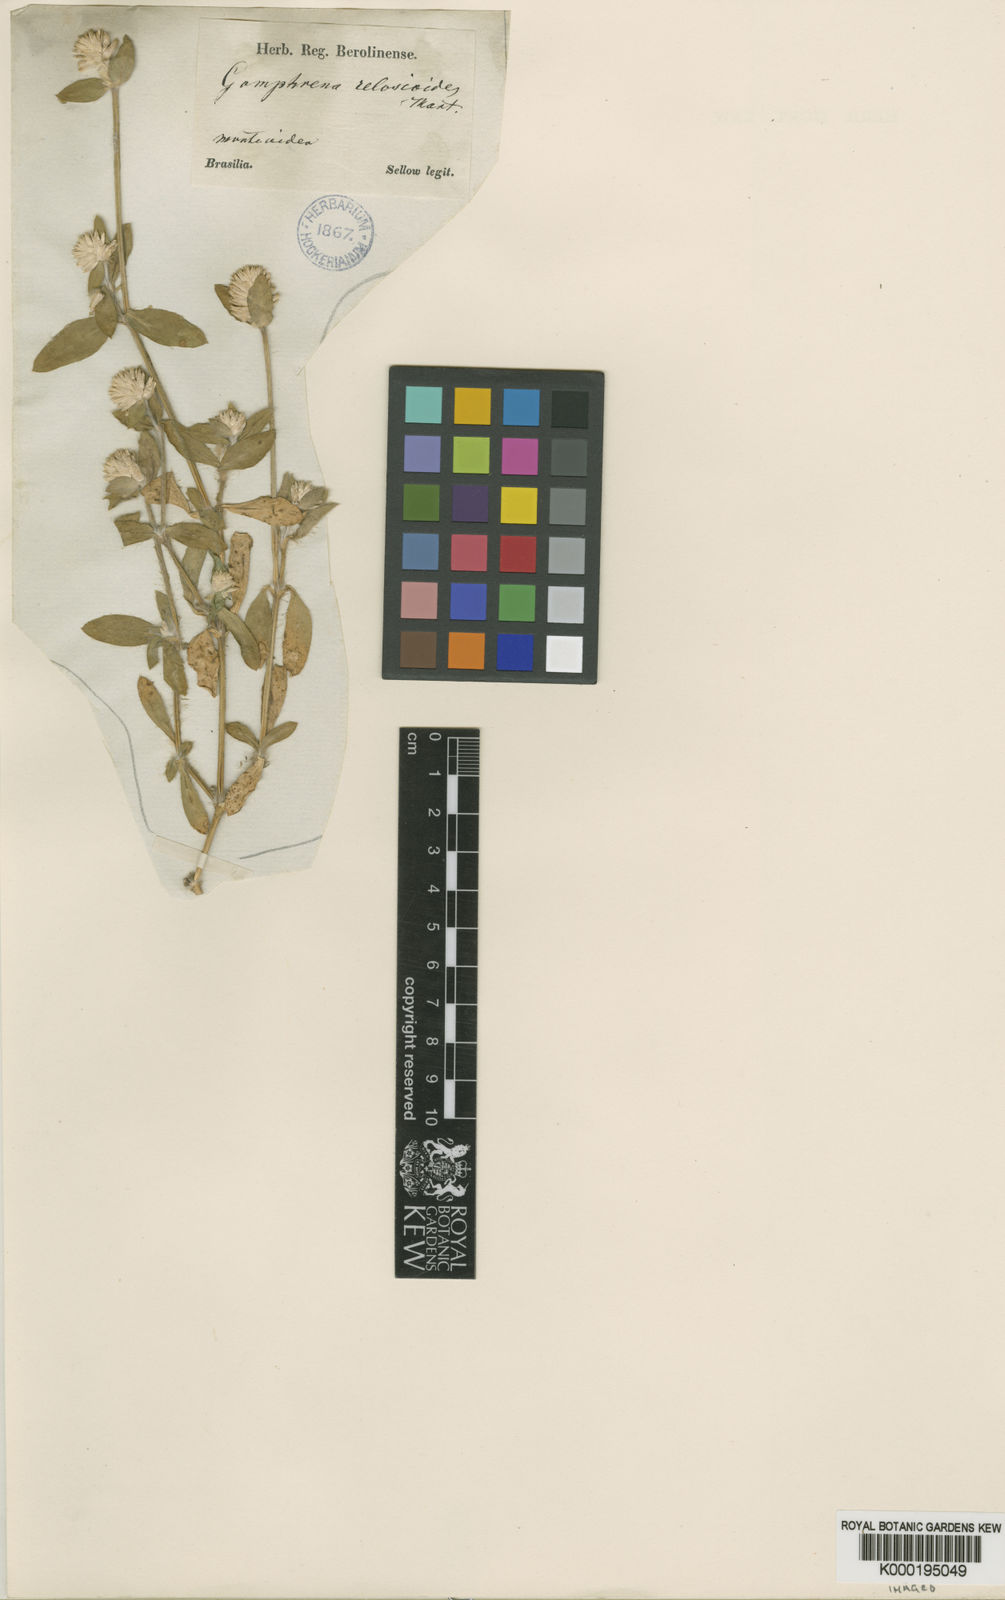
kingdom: Plantae
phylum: Tracheophyta
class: Magnoliopsida
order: Caryophyllales
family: Amaranthaceae
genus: Gomphrena
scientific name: Gomphrena celosioides
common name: Gomphrena-weed
